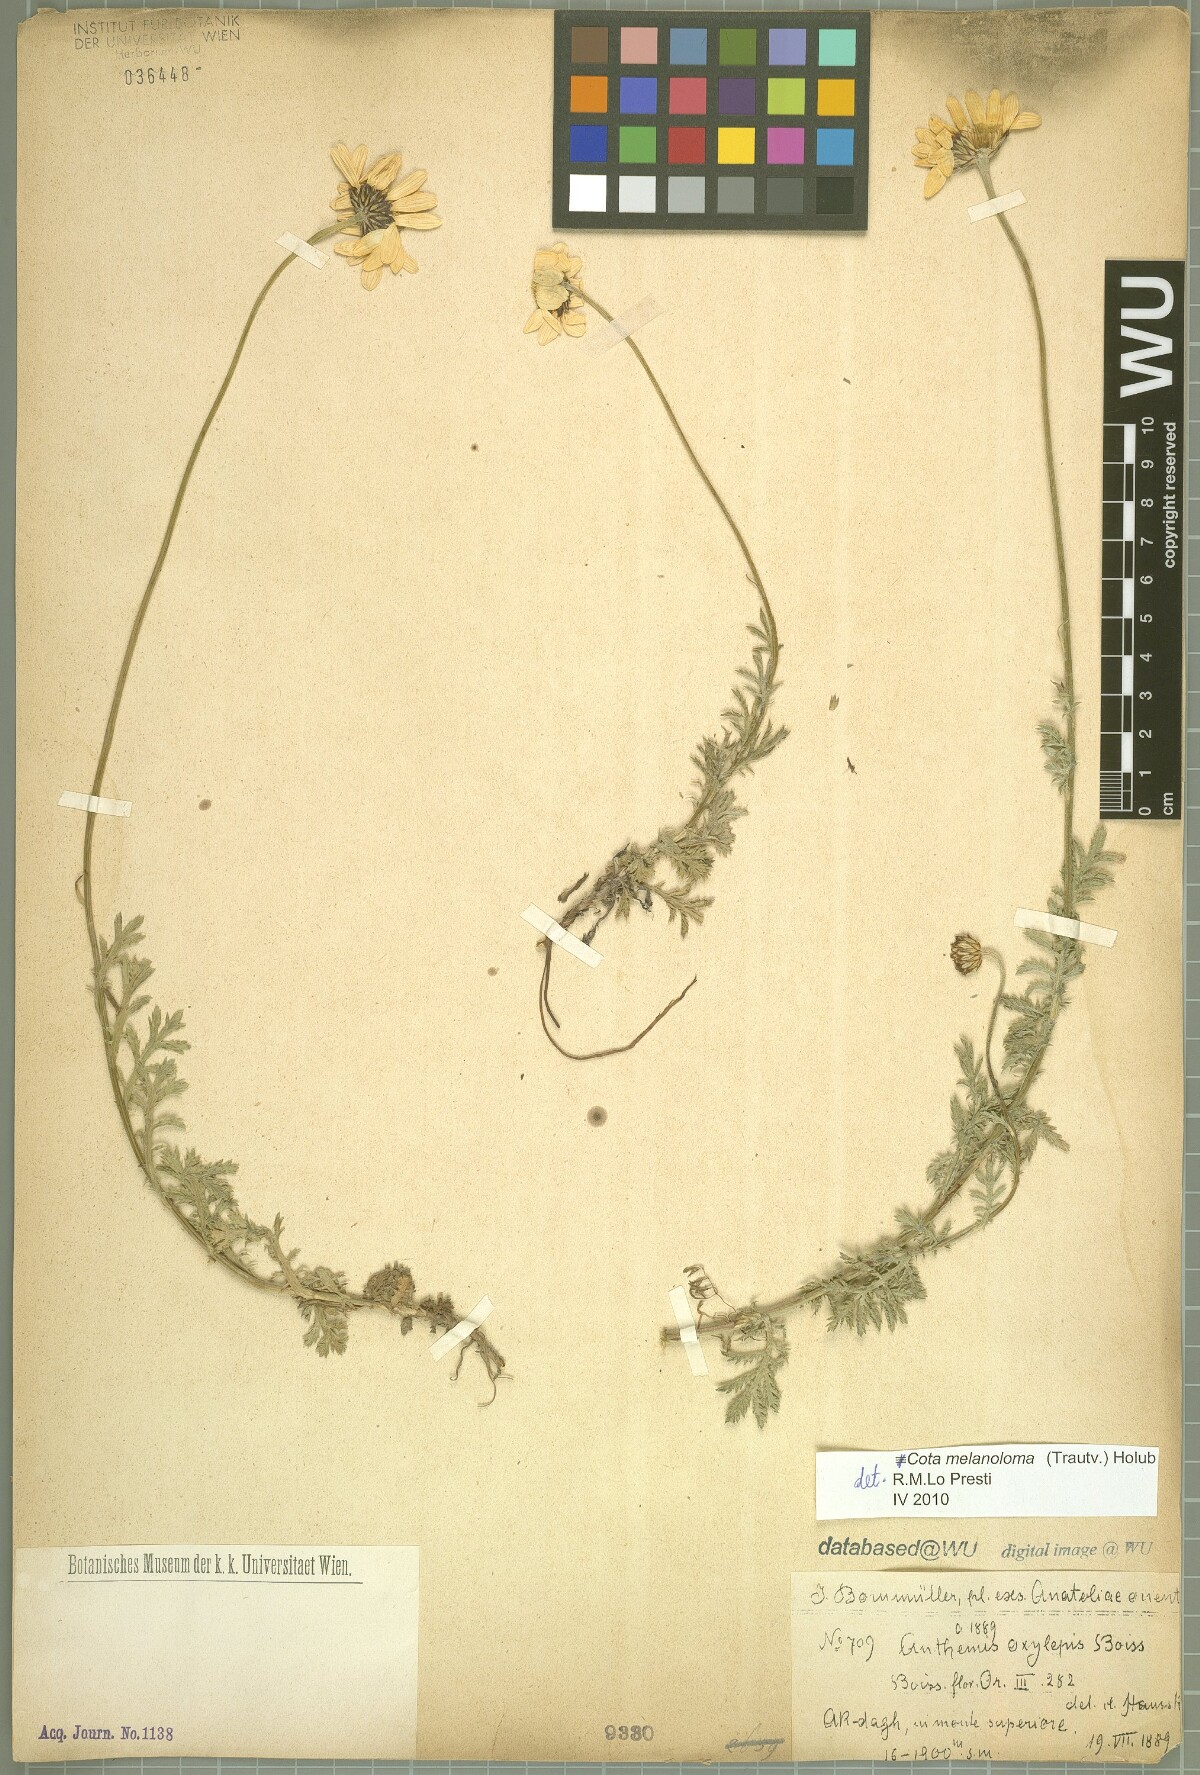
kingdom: Plantae
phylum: Tracheophyta
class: Magnoliopsida
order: Asterales
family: Asteraceae
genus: Cota
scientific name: Cota melanoloma
